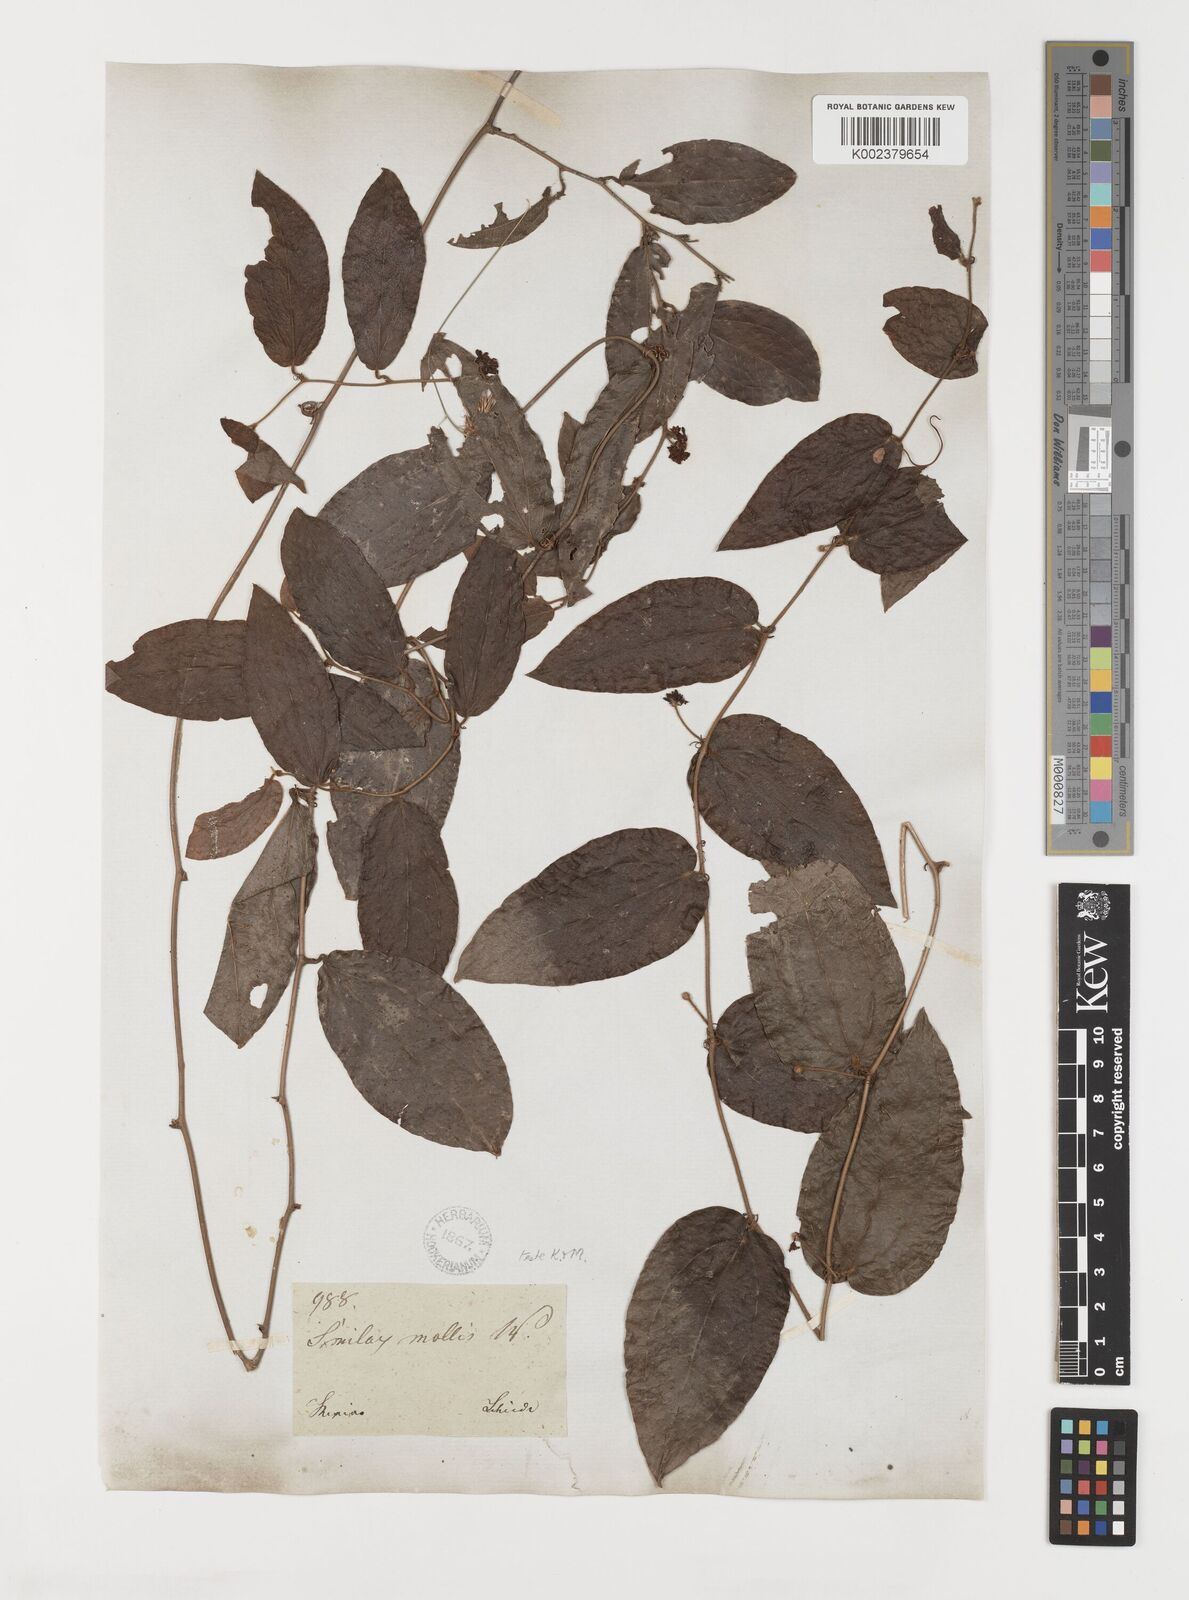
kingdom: Plantae
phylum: Tracheophyta
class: Liliopsida
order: Liliales
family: Smilacaceae
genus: Smilax
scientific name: Smilax mollis
